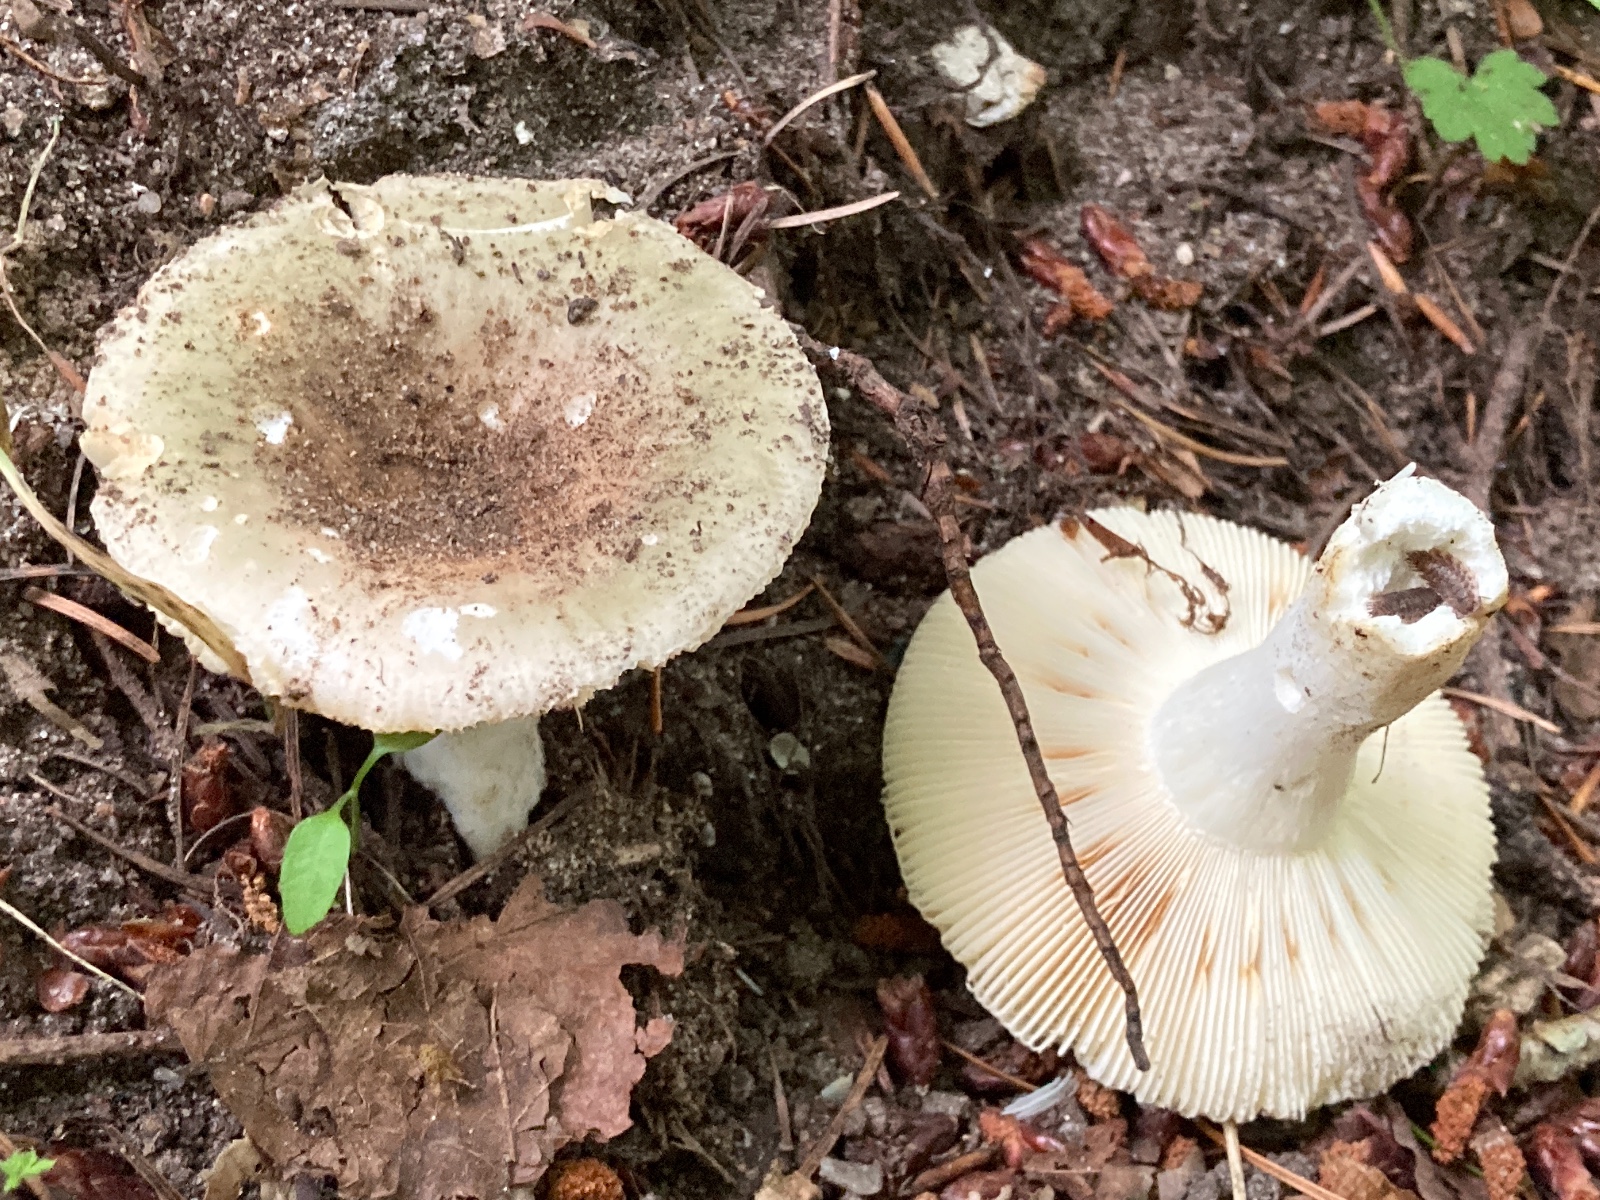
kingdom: Fungi
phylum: Basidiomycota
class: Agaricomycetes
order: Russulales
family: Russulaceae
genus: Russula
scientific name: Russula aeruginea
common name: græsgrøn skørhat
